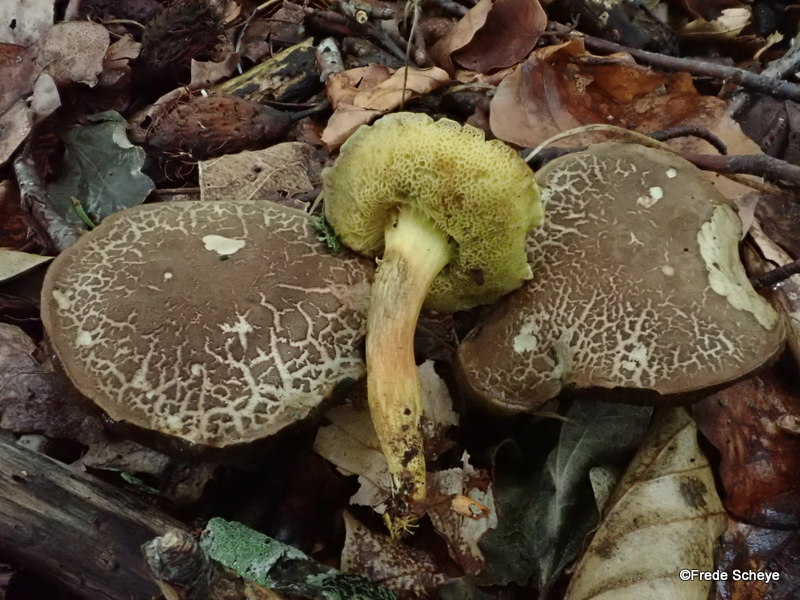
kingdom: Fungi
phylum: Basidiomycota
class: Agaricomycetes
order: Boletales
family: Boletaceae
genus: Xerocomellus
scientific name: Xerocomellus chrysenteron
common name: rødsprukken rørhat
